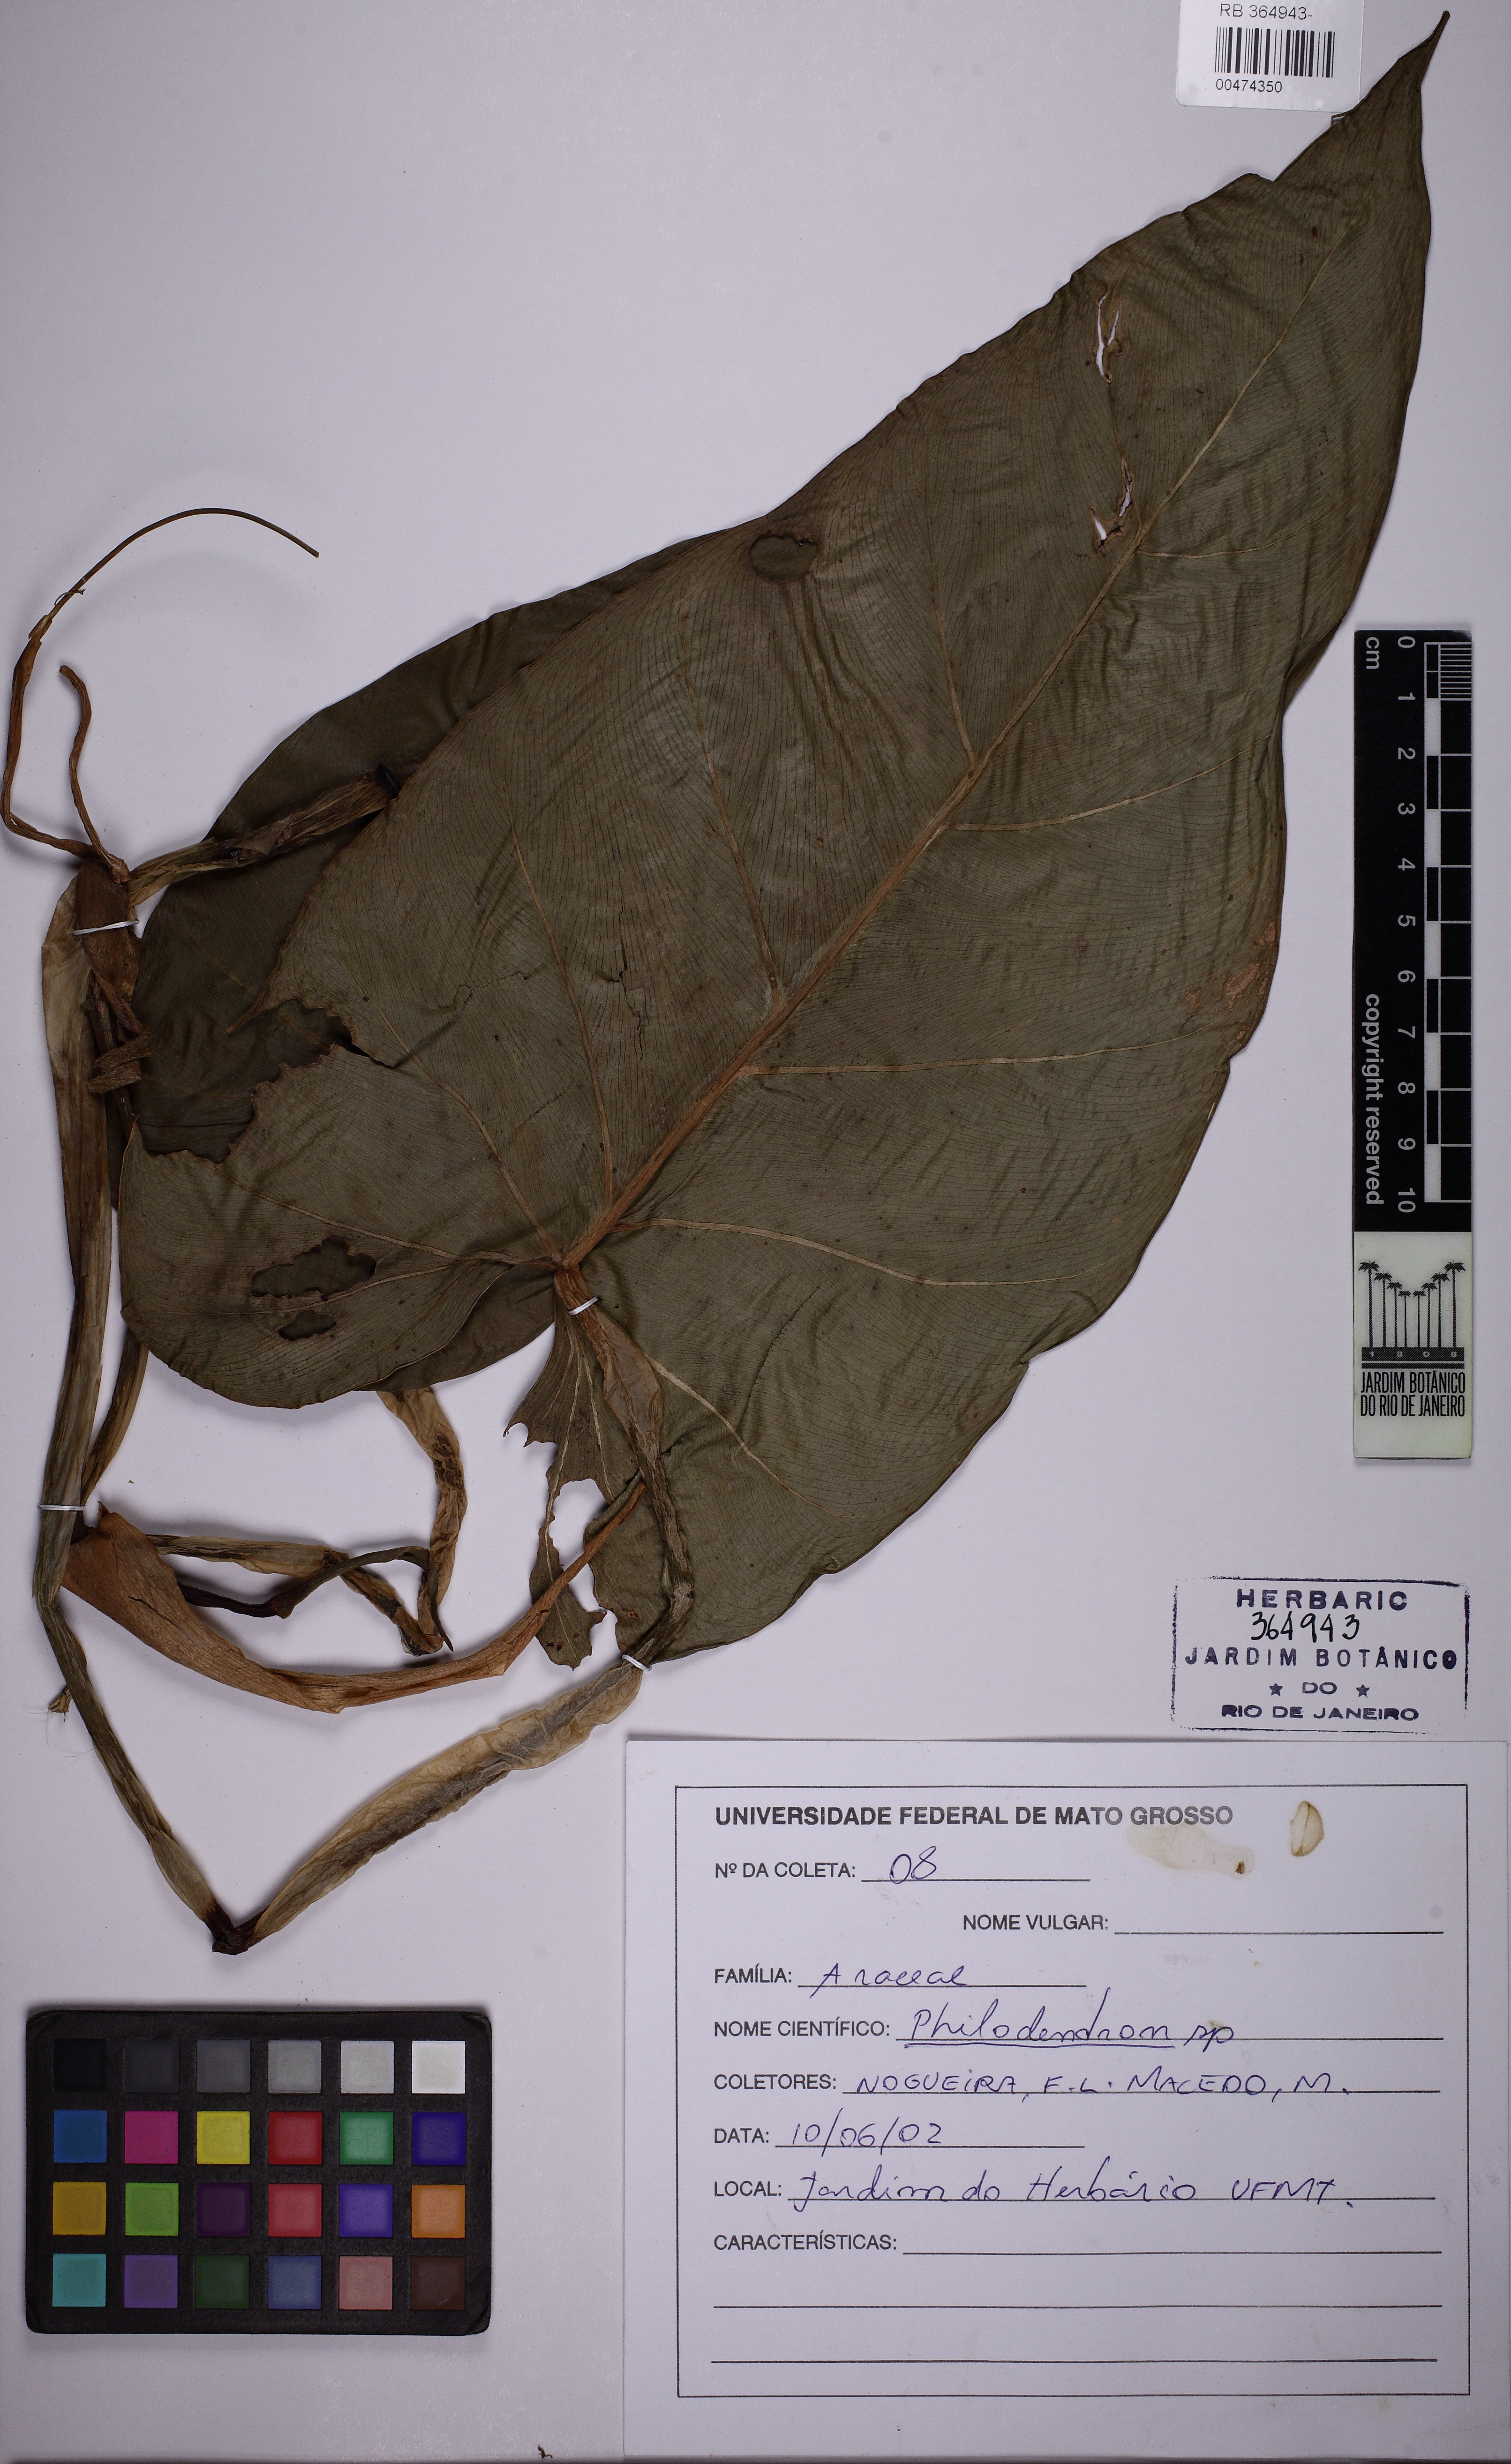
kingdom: Plantae
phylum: Tracheophyta
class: Liliopsida
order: Alismatales
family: Araceae
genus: Philodendron
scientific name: Philodendron
